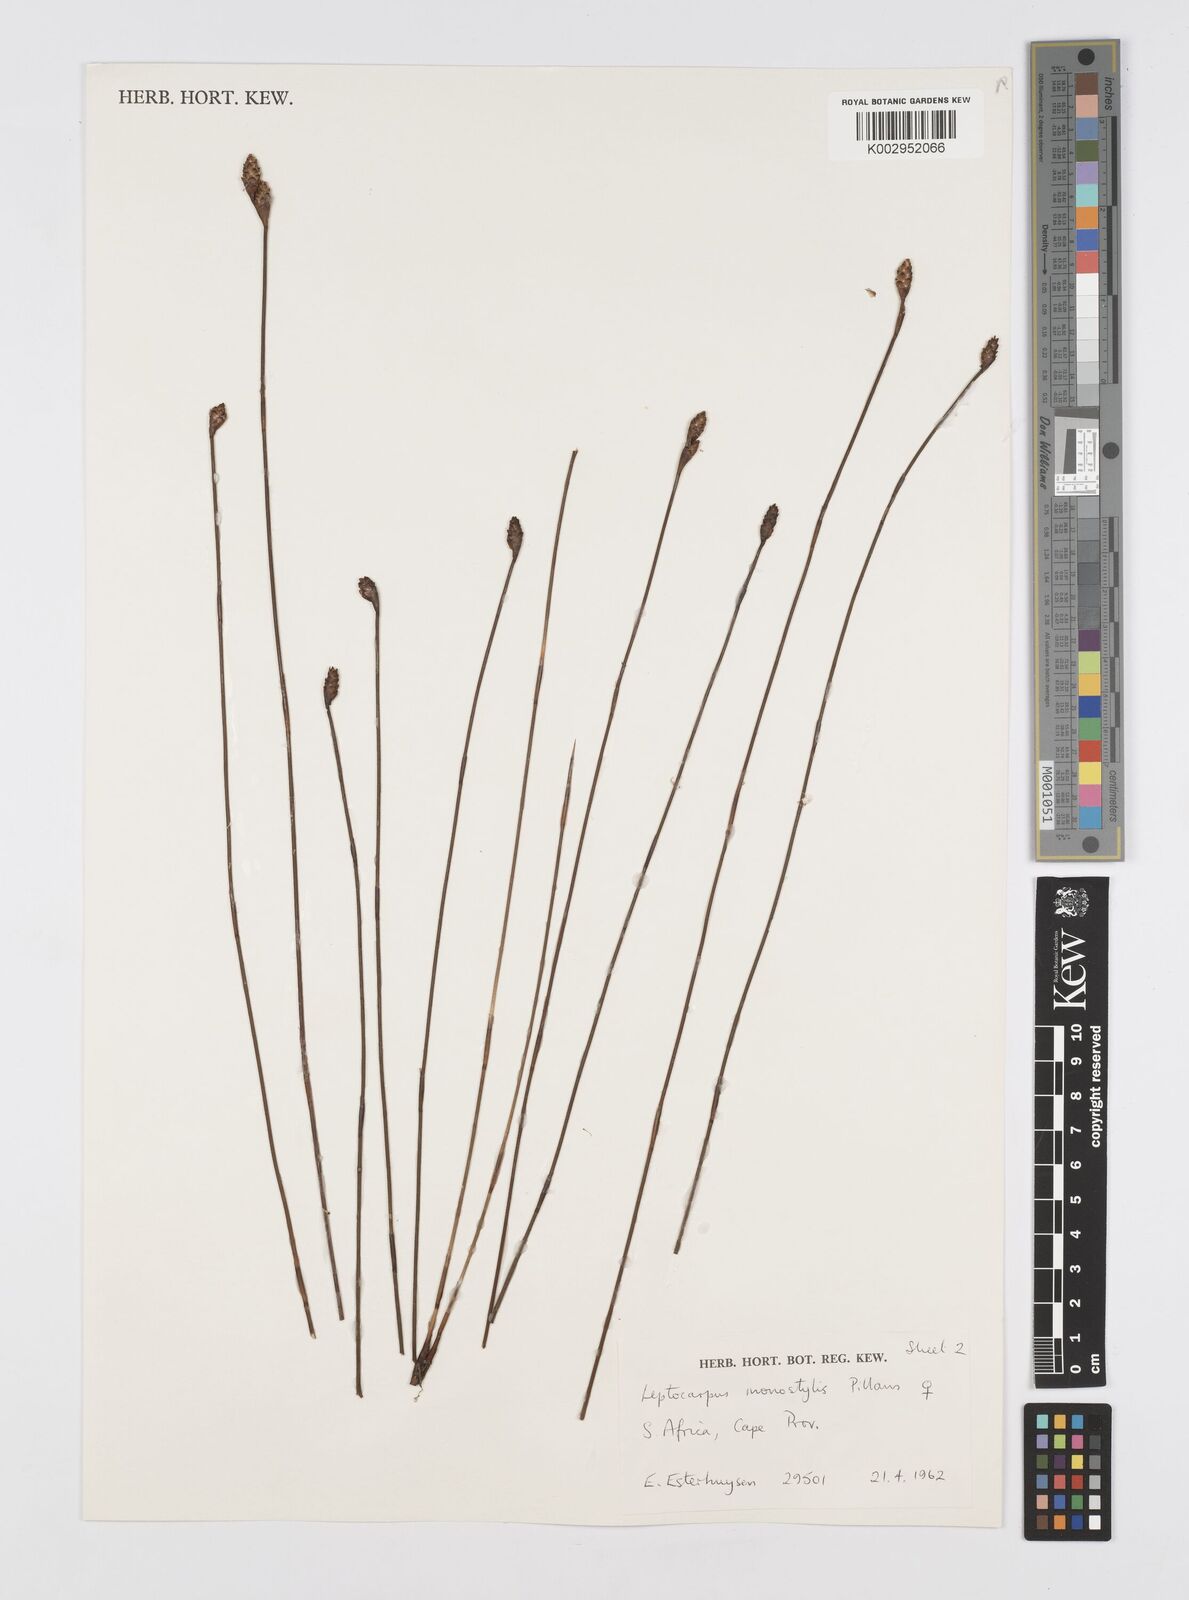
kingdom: Plantae
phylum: Tracheophyta
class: Liliopsida
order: Poales
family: Restionaceae
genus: Restio
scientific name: Restio monostylis
